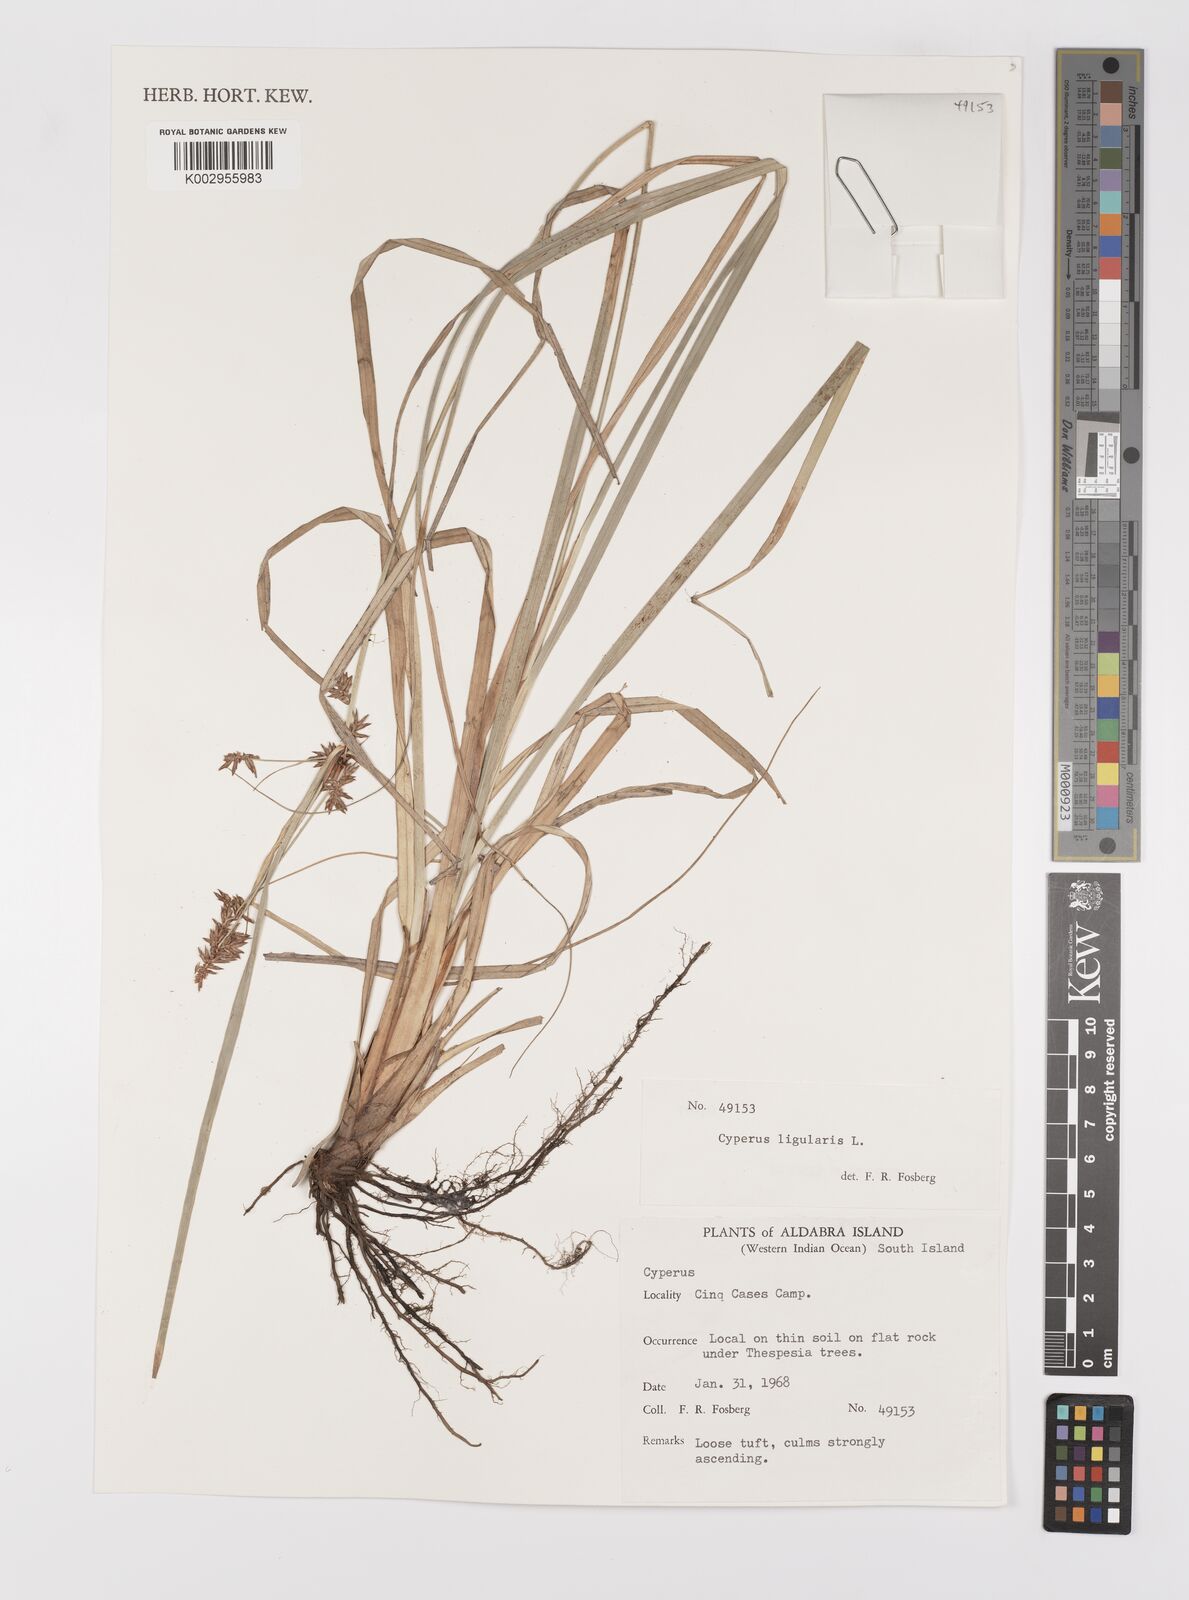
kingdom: Plantae
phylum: Tracheophyta
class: Liliopsida
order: Poales
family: Cyperaceae
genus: Cyperus
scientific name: Cyperus ligularis
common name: Swamp flat sedge
